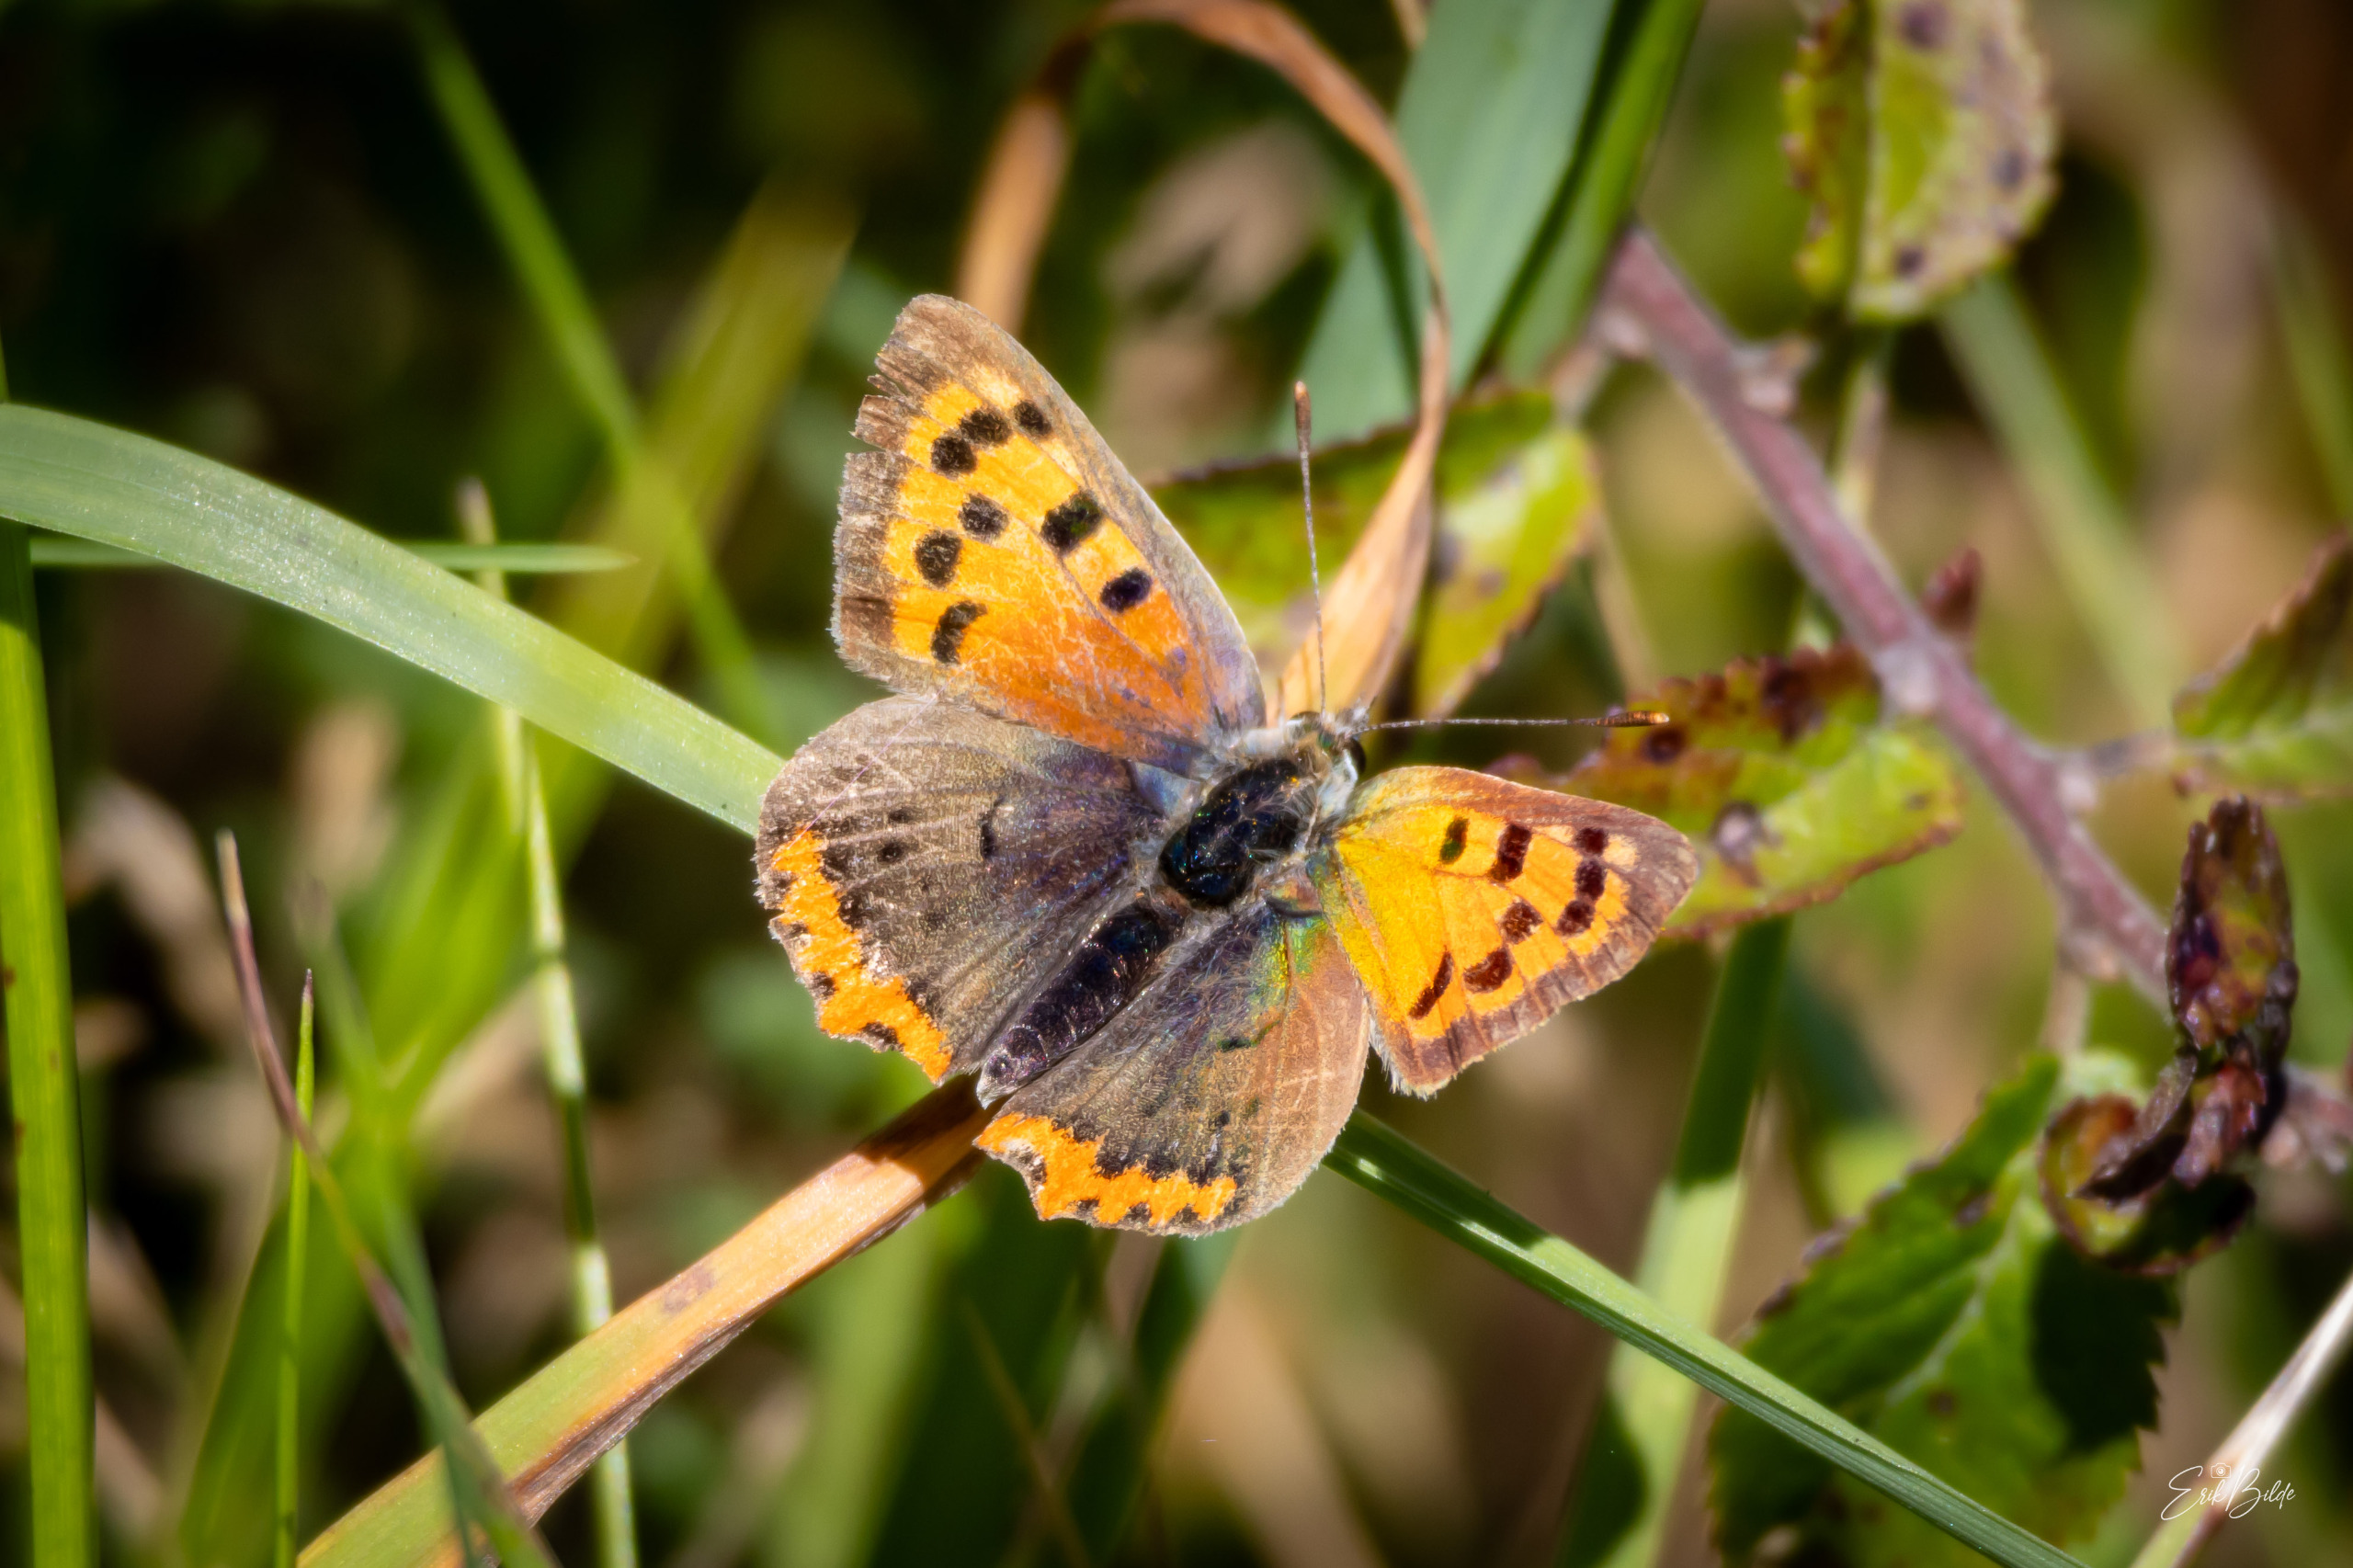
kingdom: Animalia
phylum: Arthropoda
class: Insecta
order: Lepidoptera
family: Lycaenidae
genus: Lycaena
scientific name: Lycaena phlaeas
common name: Lille ildfugl
